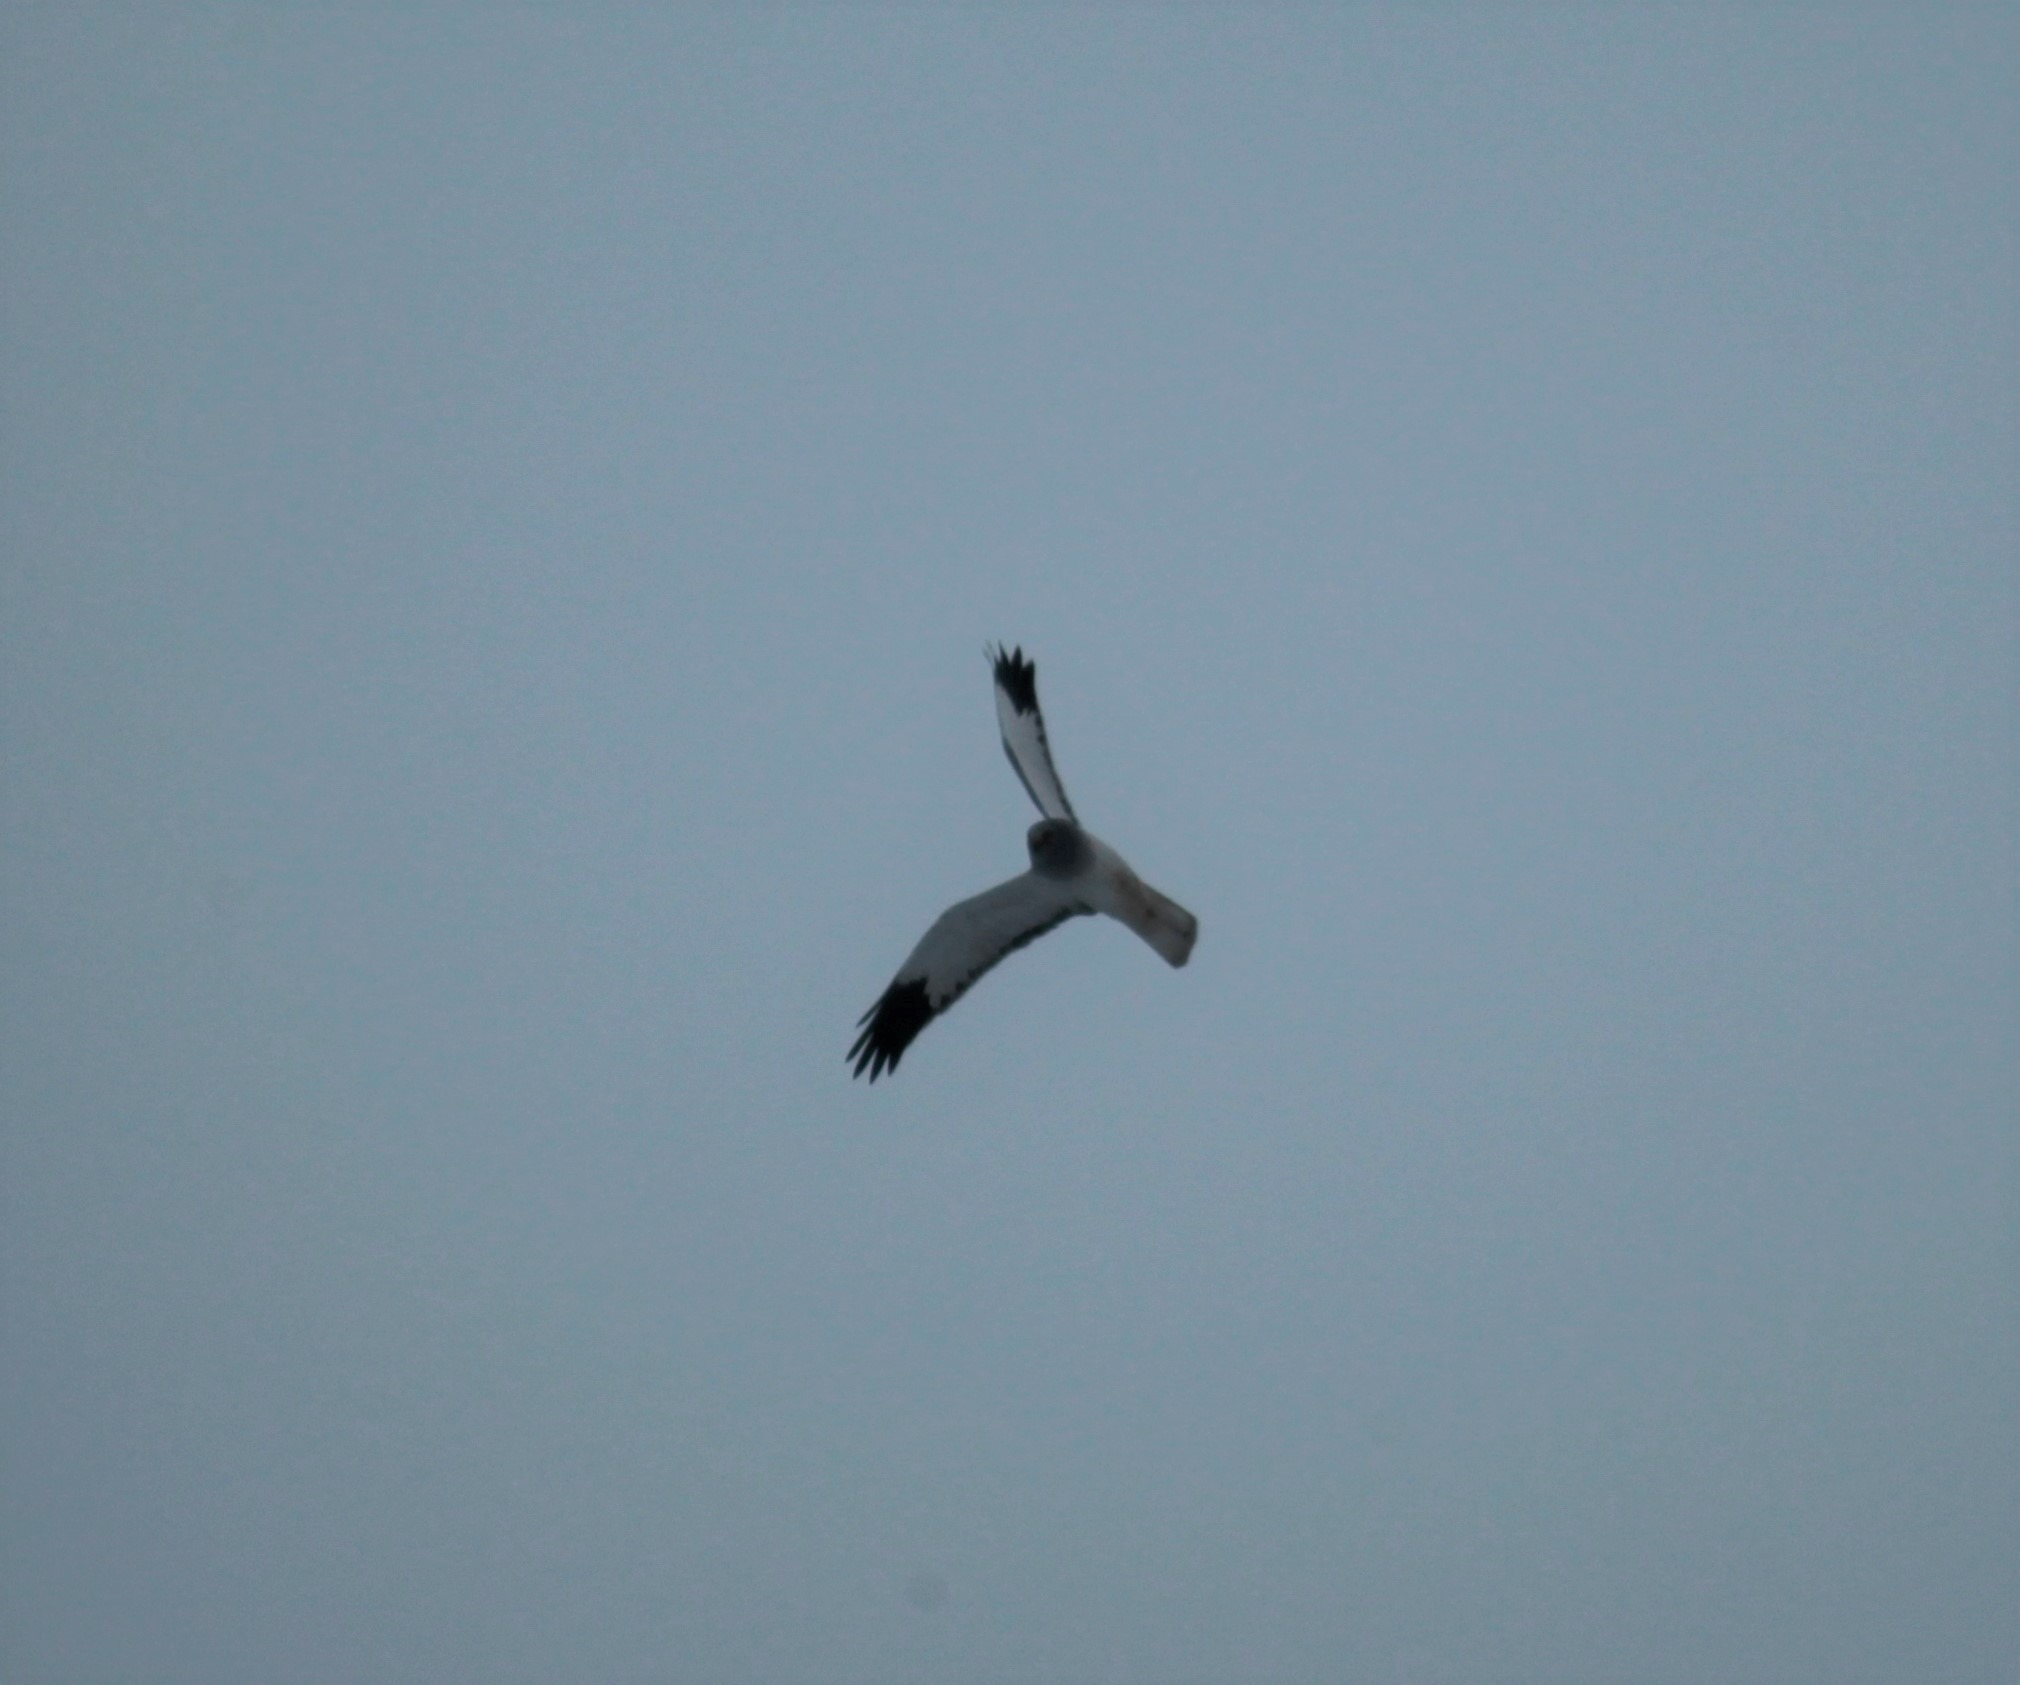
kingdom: Animalia
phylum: Chordata
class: Aves
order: Accipitriformes
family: Accipitridae
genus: Circus
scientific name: Circus cyaneus
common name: Blå kærhøg
